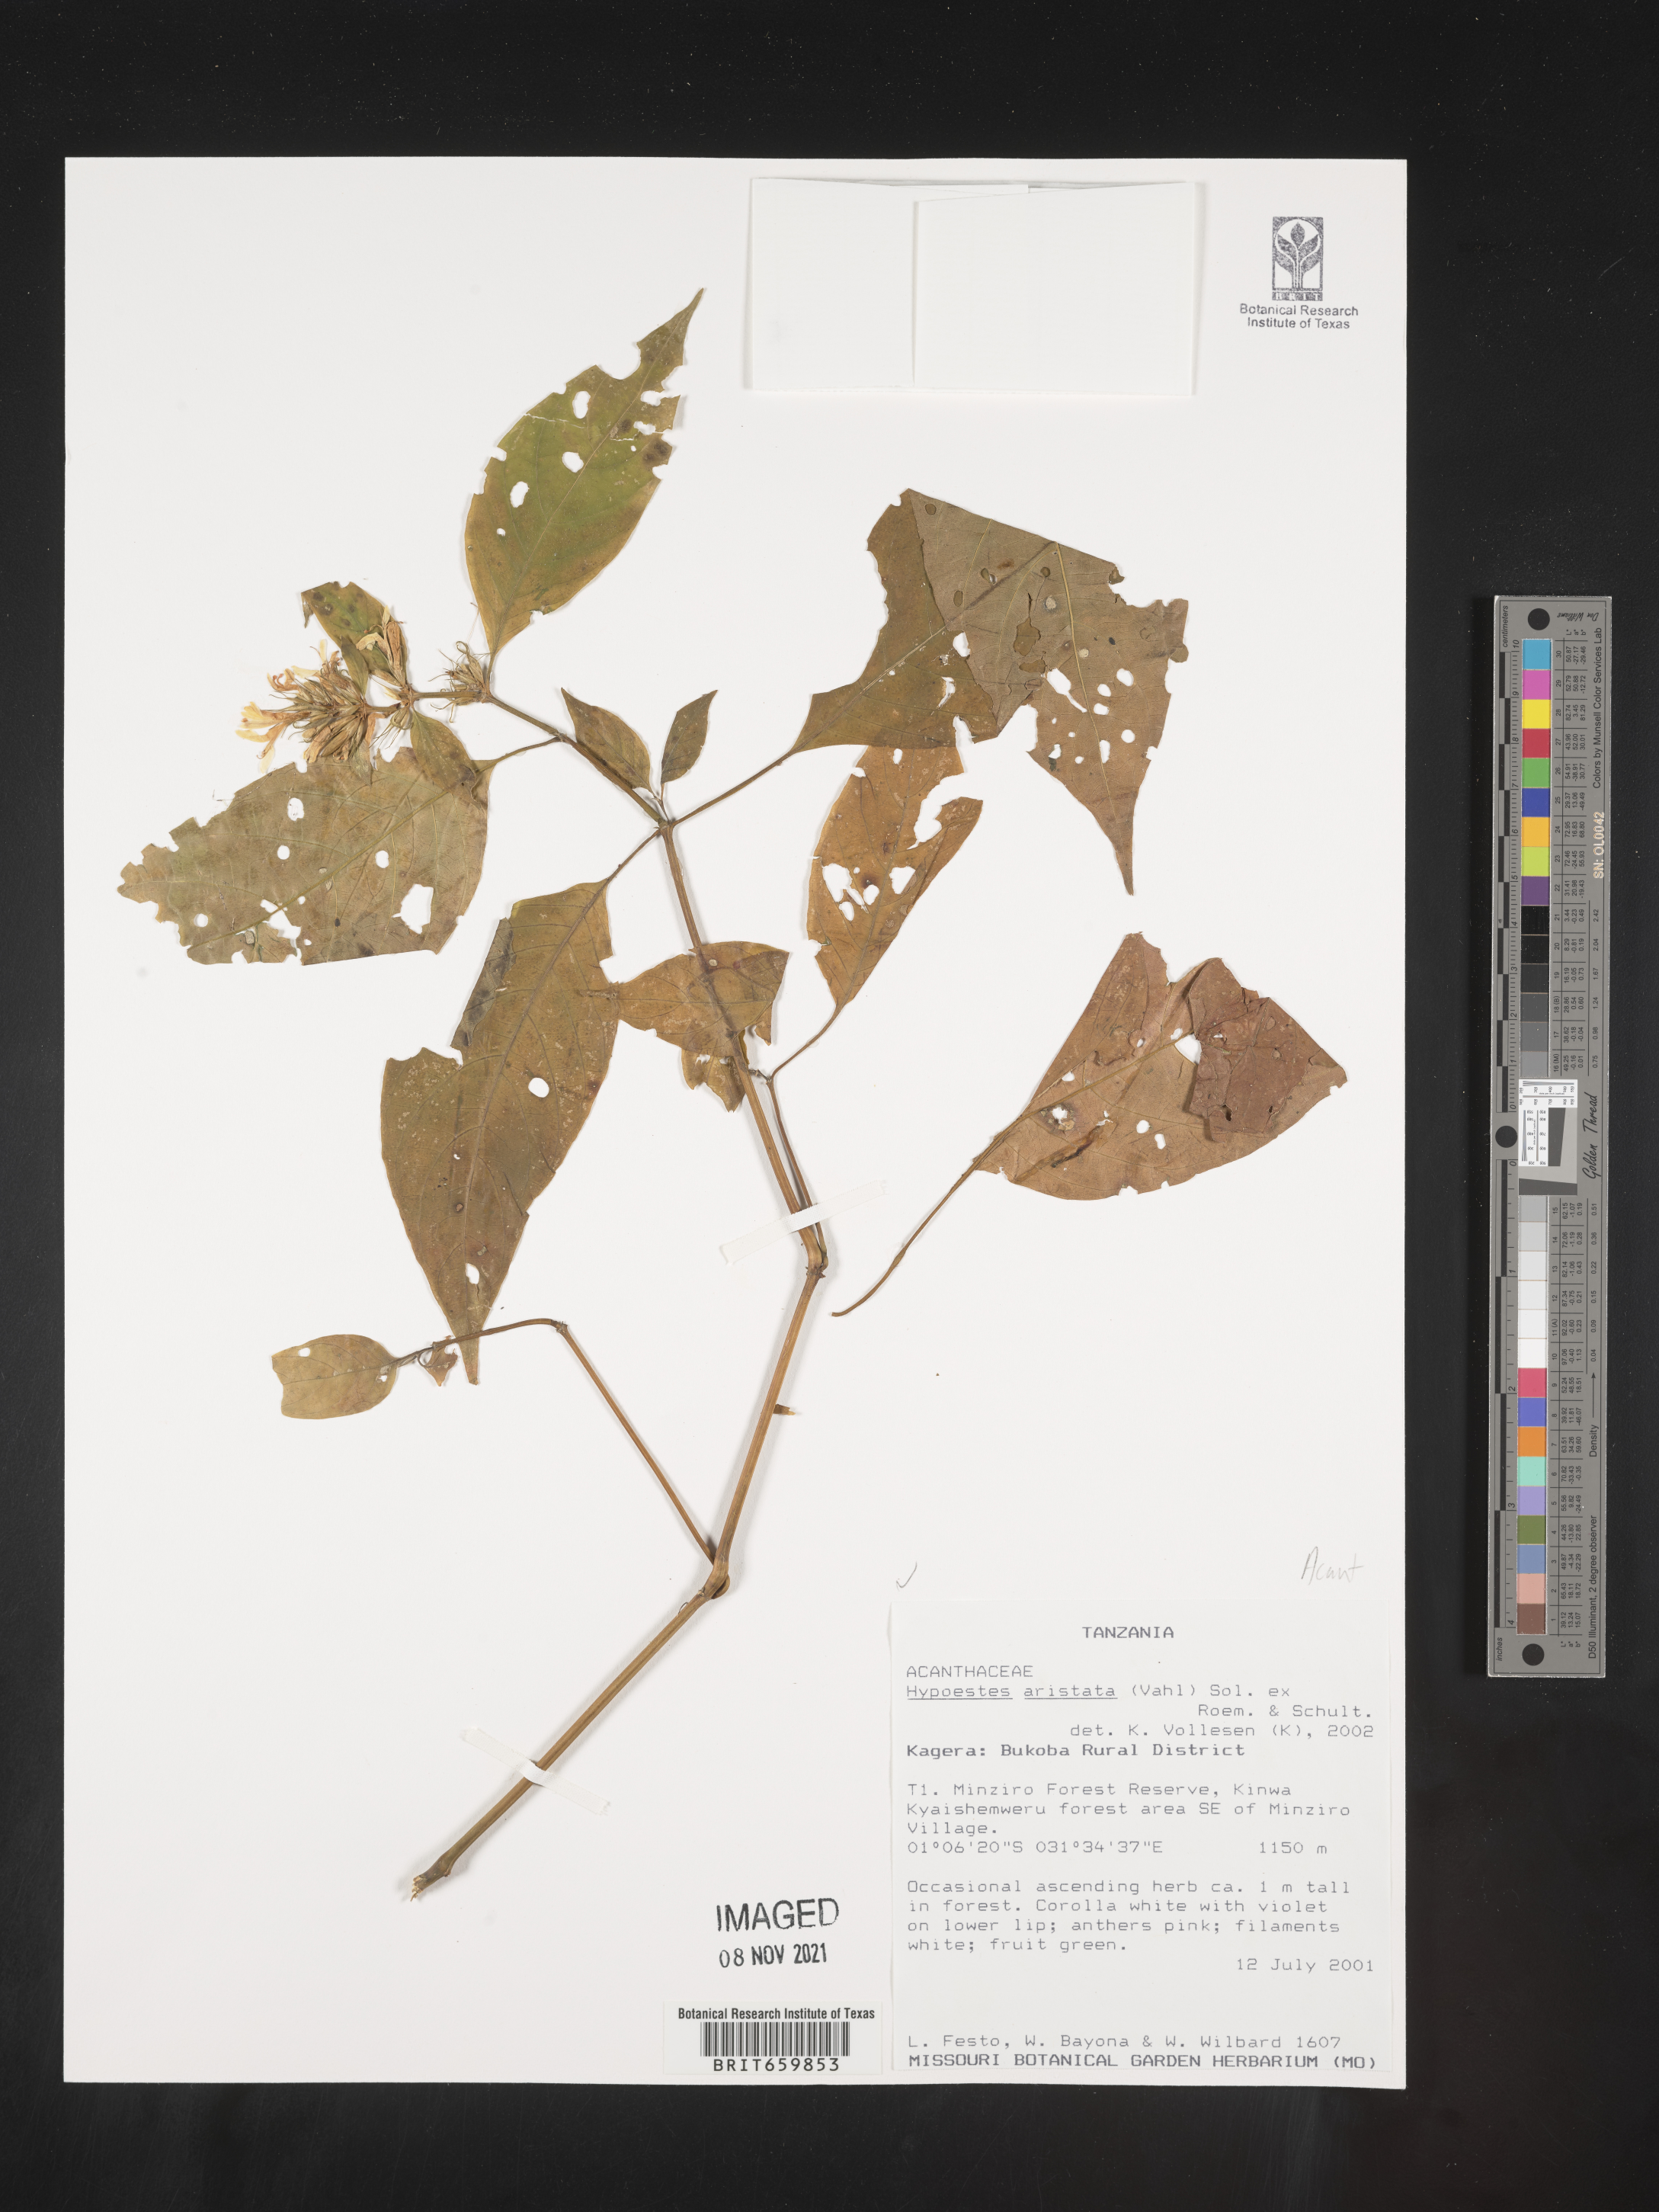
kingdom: Plantae
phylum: Tracheophyta
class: Magnoliopsida
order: Lamiales
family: Acanthaceae
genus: Hypoestes
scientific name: Hypoestes aristata
